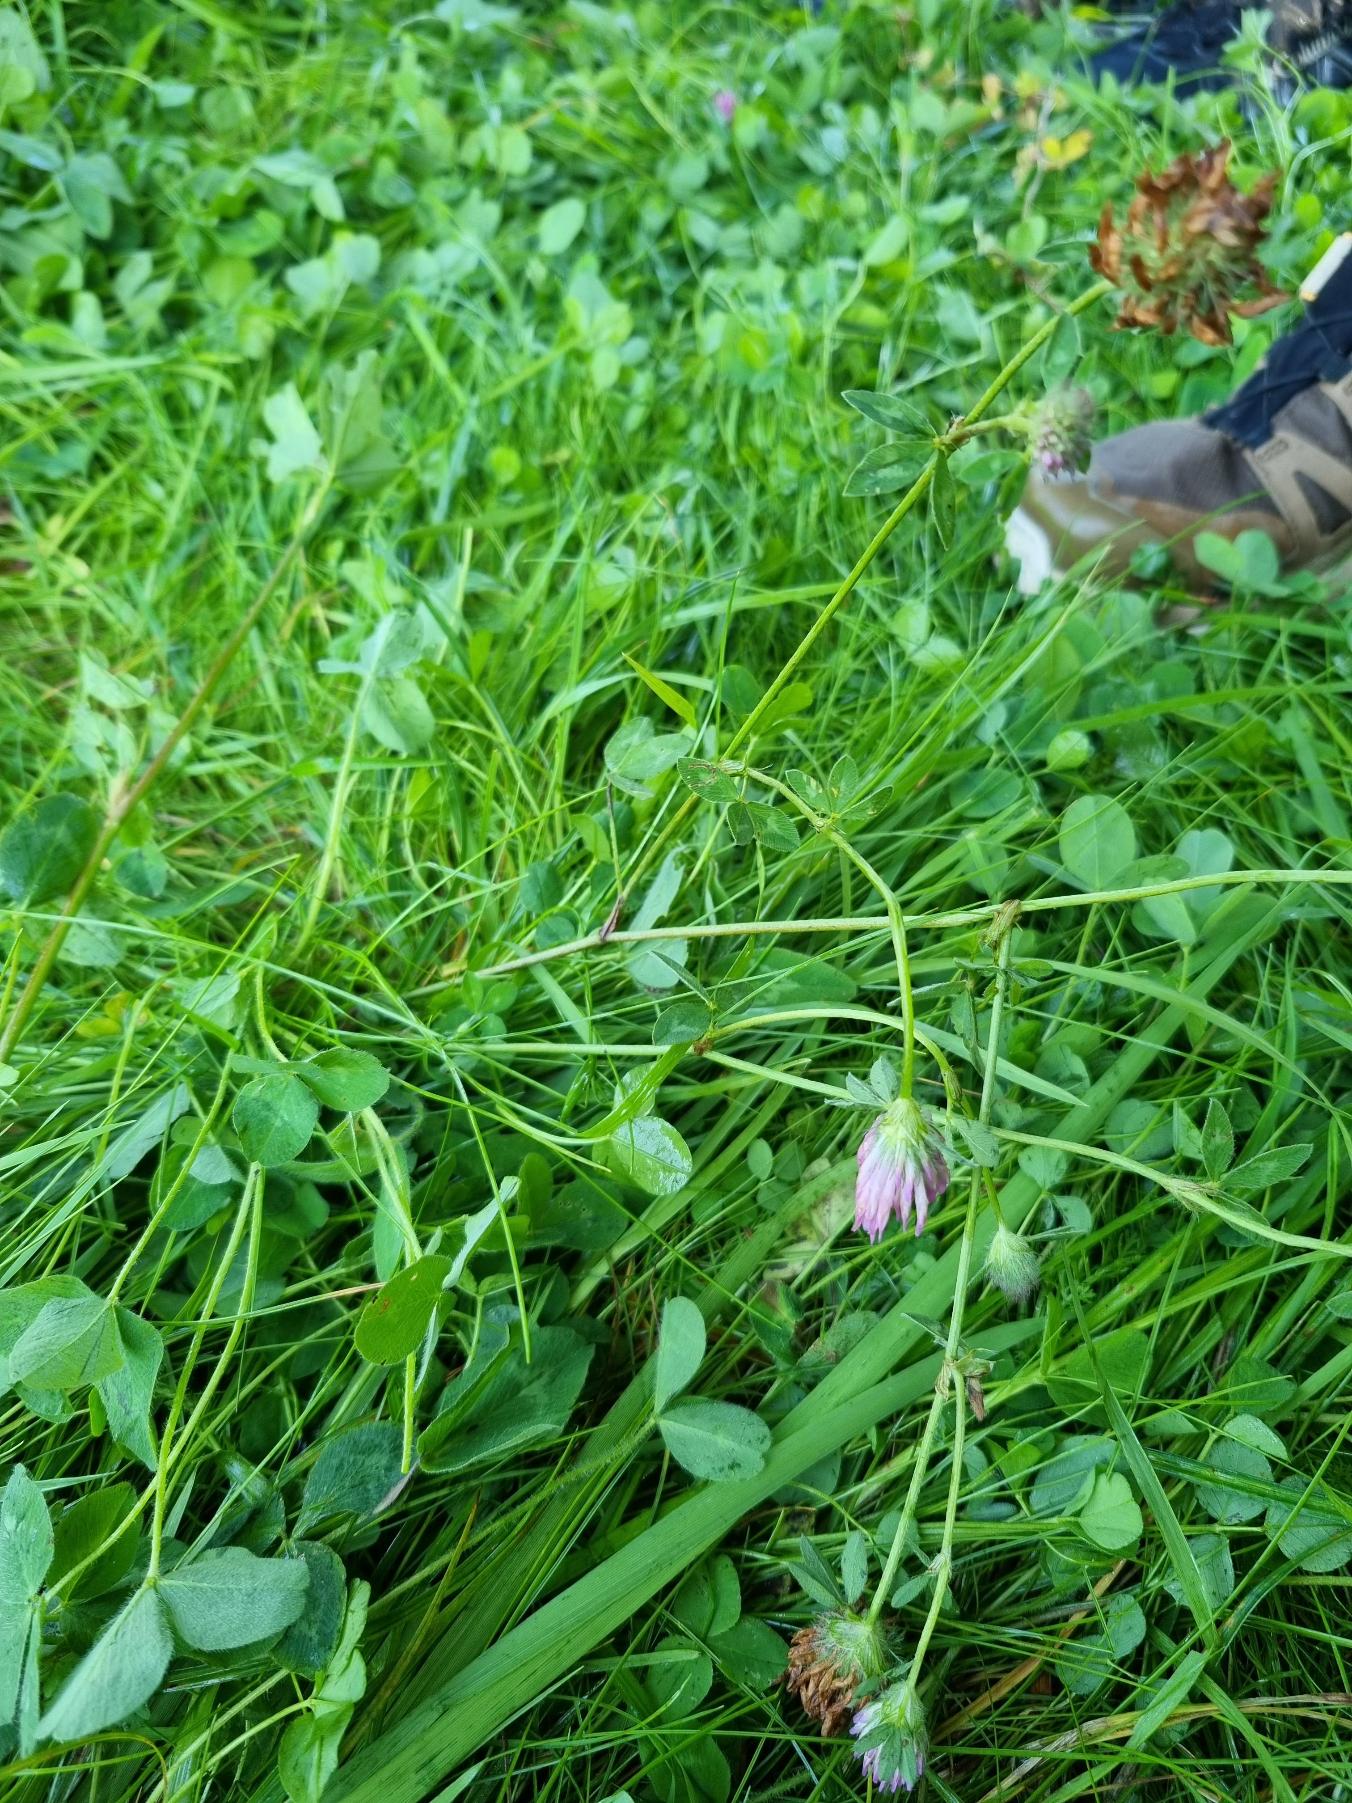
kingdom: Plantae
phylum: Tracheophyta
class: Magnoliopsida
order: Fabales
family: Fabaceae
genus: Trifolium
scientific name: Trifolium pratense
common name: Rød-kløver
